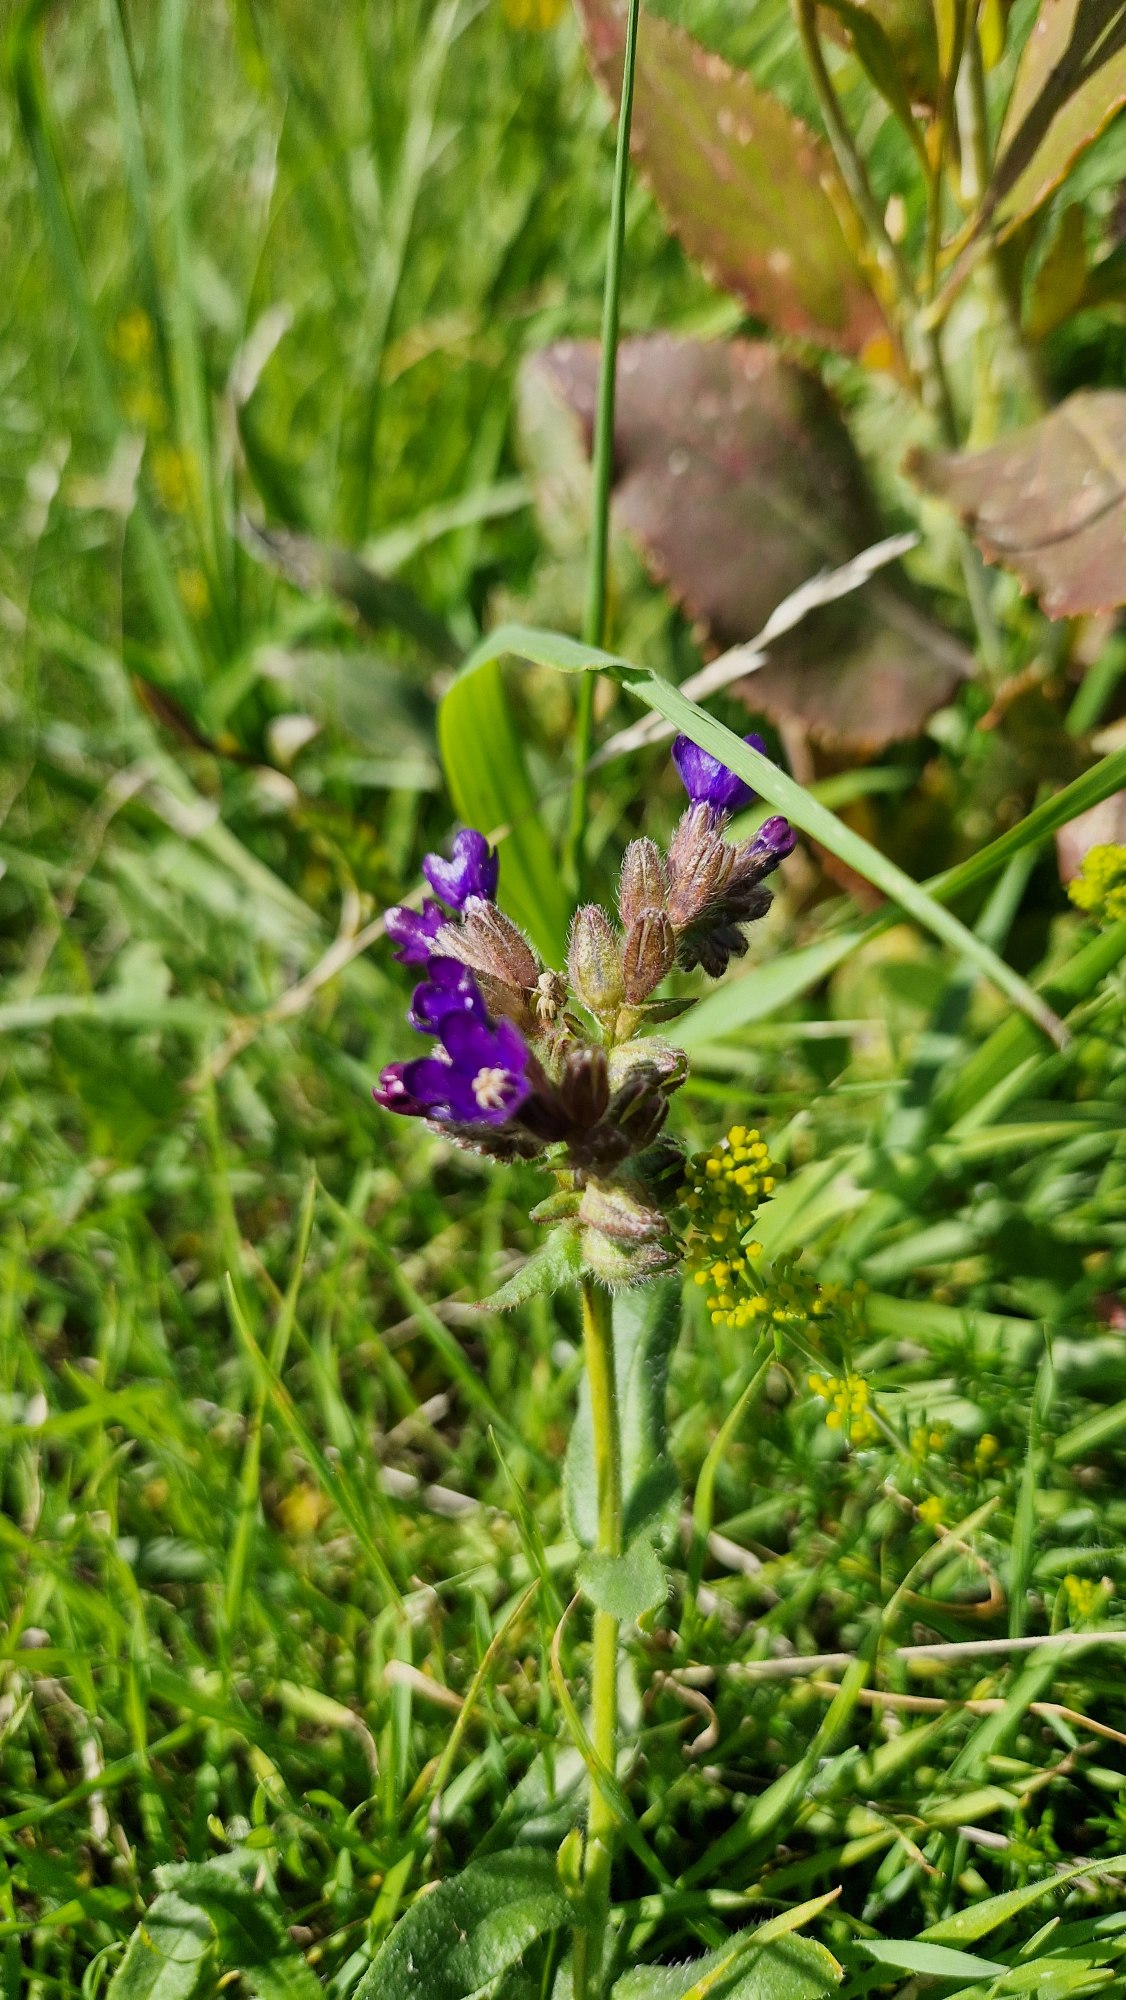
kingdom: Plantae
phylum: Tracheophyta
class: Magnoliopsida
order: Boraginales
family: Boraginaceae
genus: Anchusa
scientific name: Anchusa officinalis
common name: Læge-oksetunge
